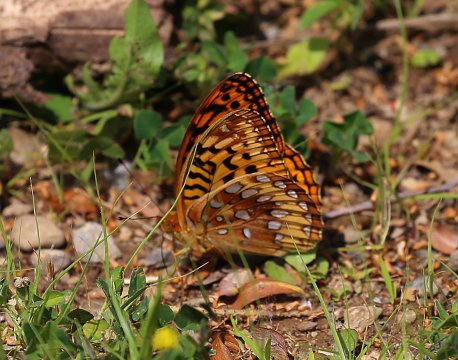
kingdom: Animalia
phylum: Arthropoda
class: Insecta
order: Lepidoptera
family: Nymphalidae
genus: Speyeria
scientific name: Speyeria cybele
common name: Great Spangled Fritillary
